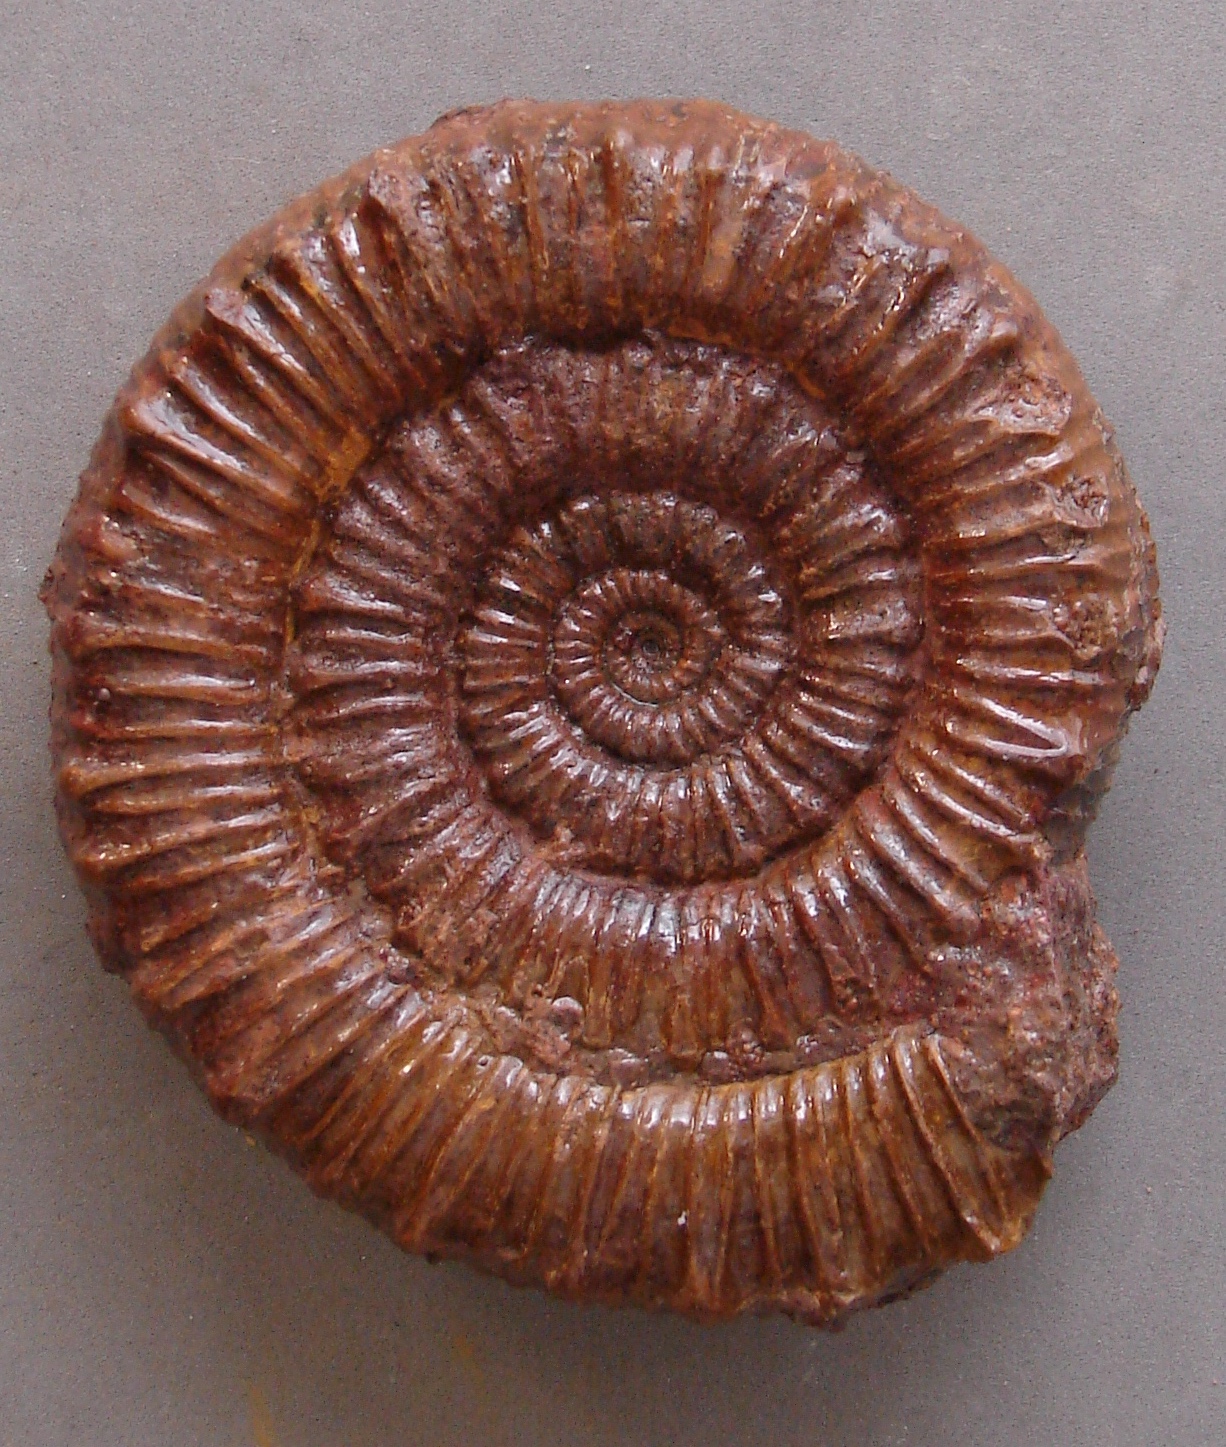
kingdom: Animalia
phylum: Mollusca
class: Cephalopoda
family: Dactylioceratidae
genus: Peronoceras
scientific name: Peronoceras subarmatum
